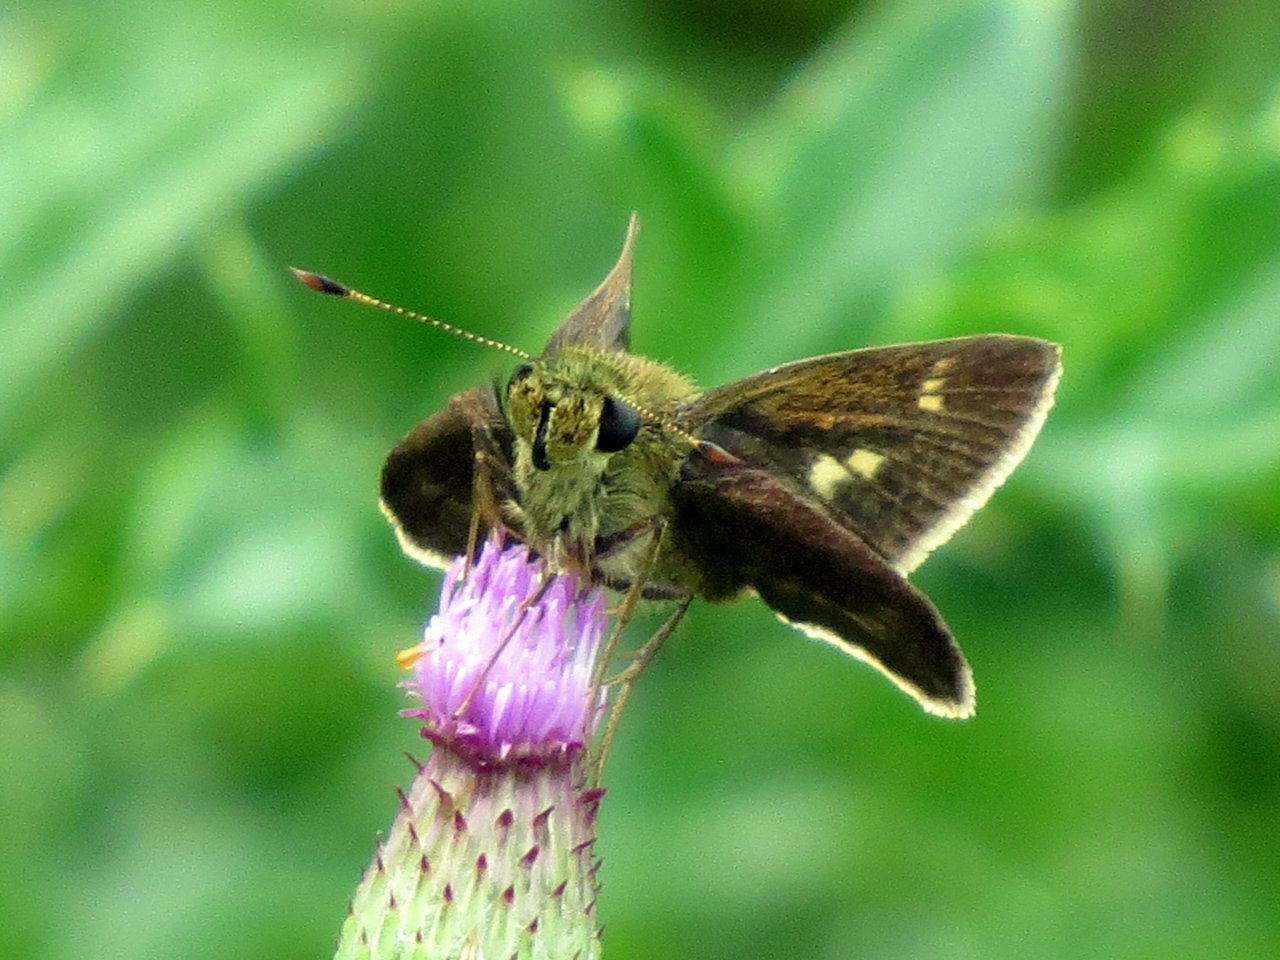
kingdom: Animalia
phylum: Arthropoda
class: Insecta
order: Lepidoptera
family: Hesperiidae
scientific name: Hesperiidae
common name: Skippers
